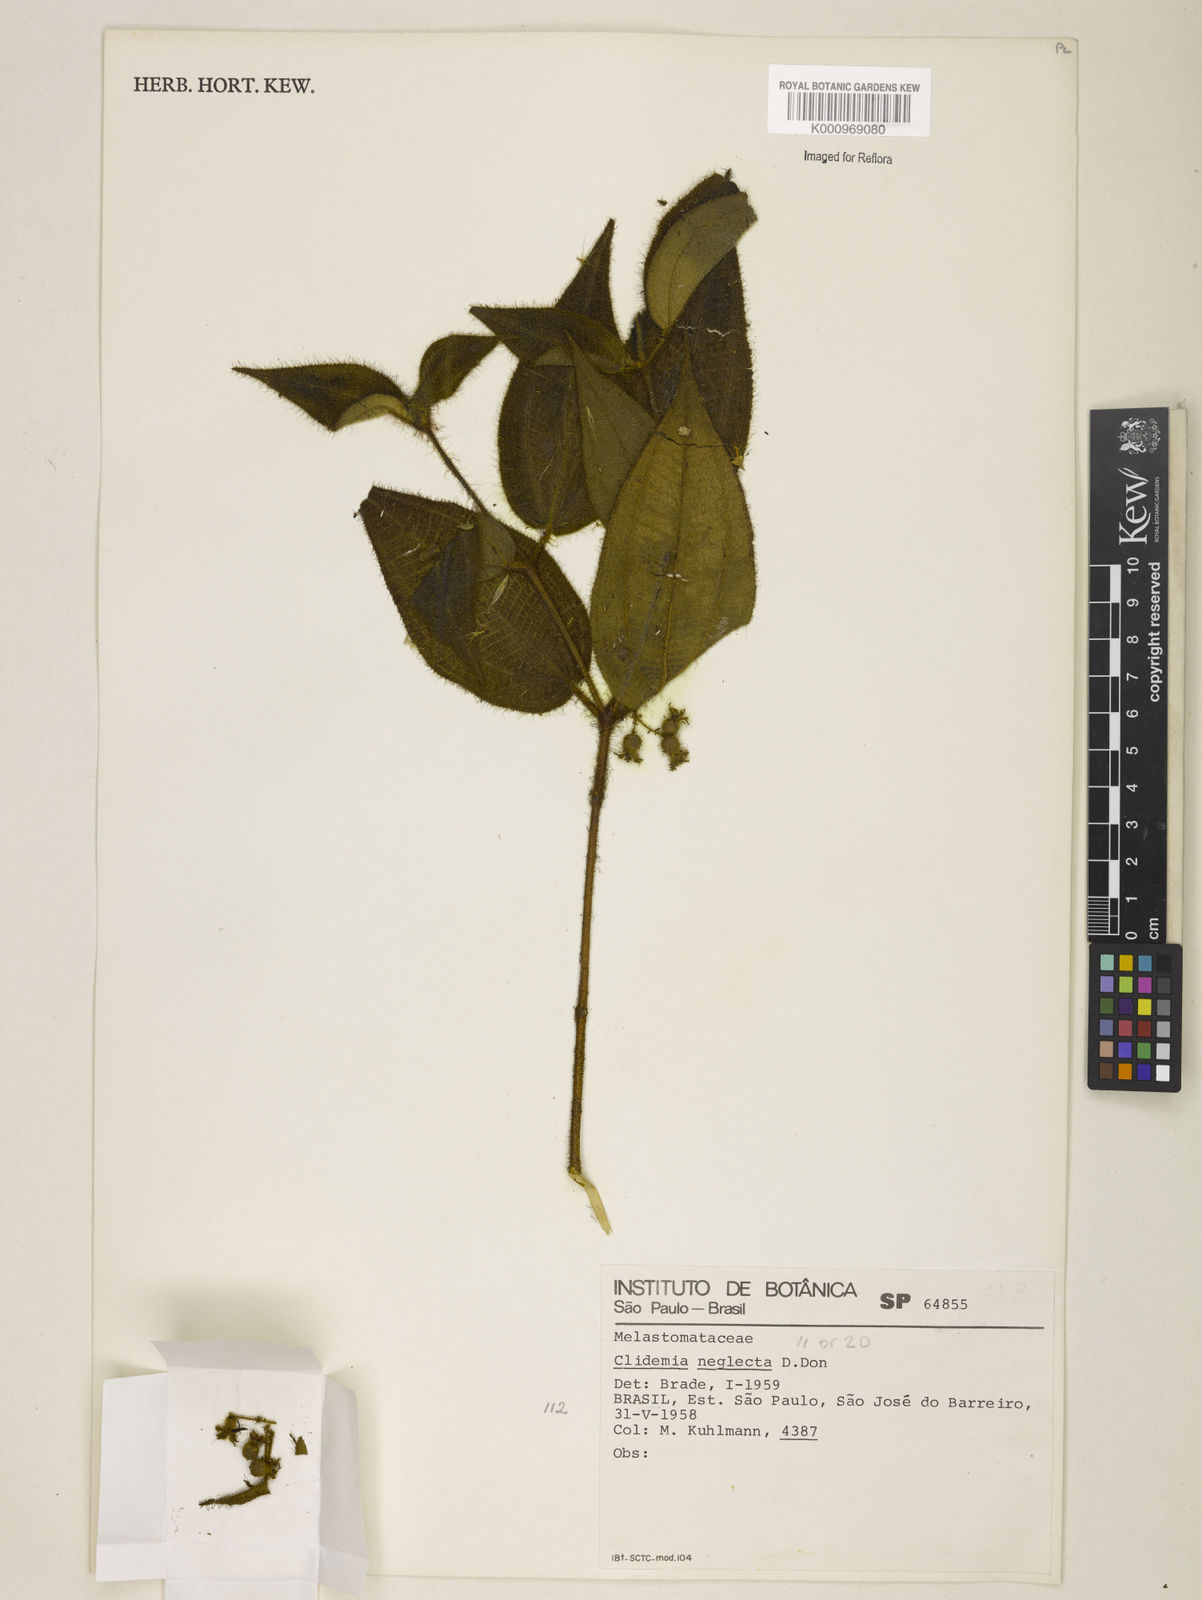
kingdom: Plantae
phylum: Tracheophyta
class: Magnoliopsida
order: Myrtales
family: Melastomataceae
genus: Miconia
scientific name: Miconia dependens
